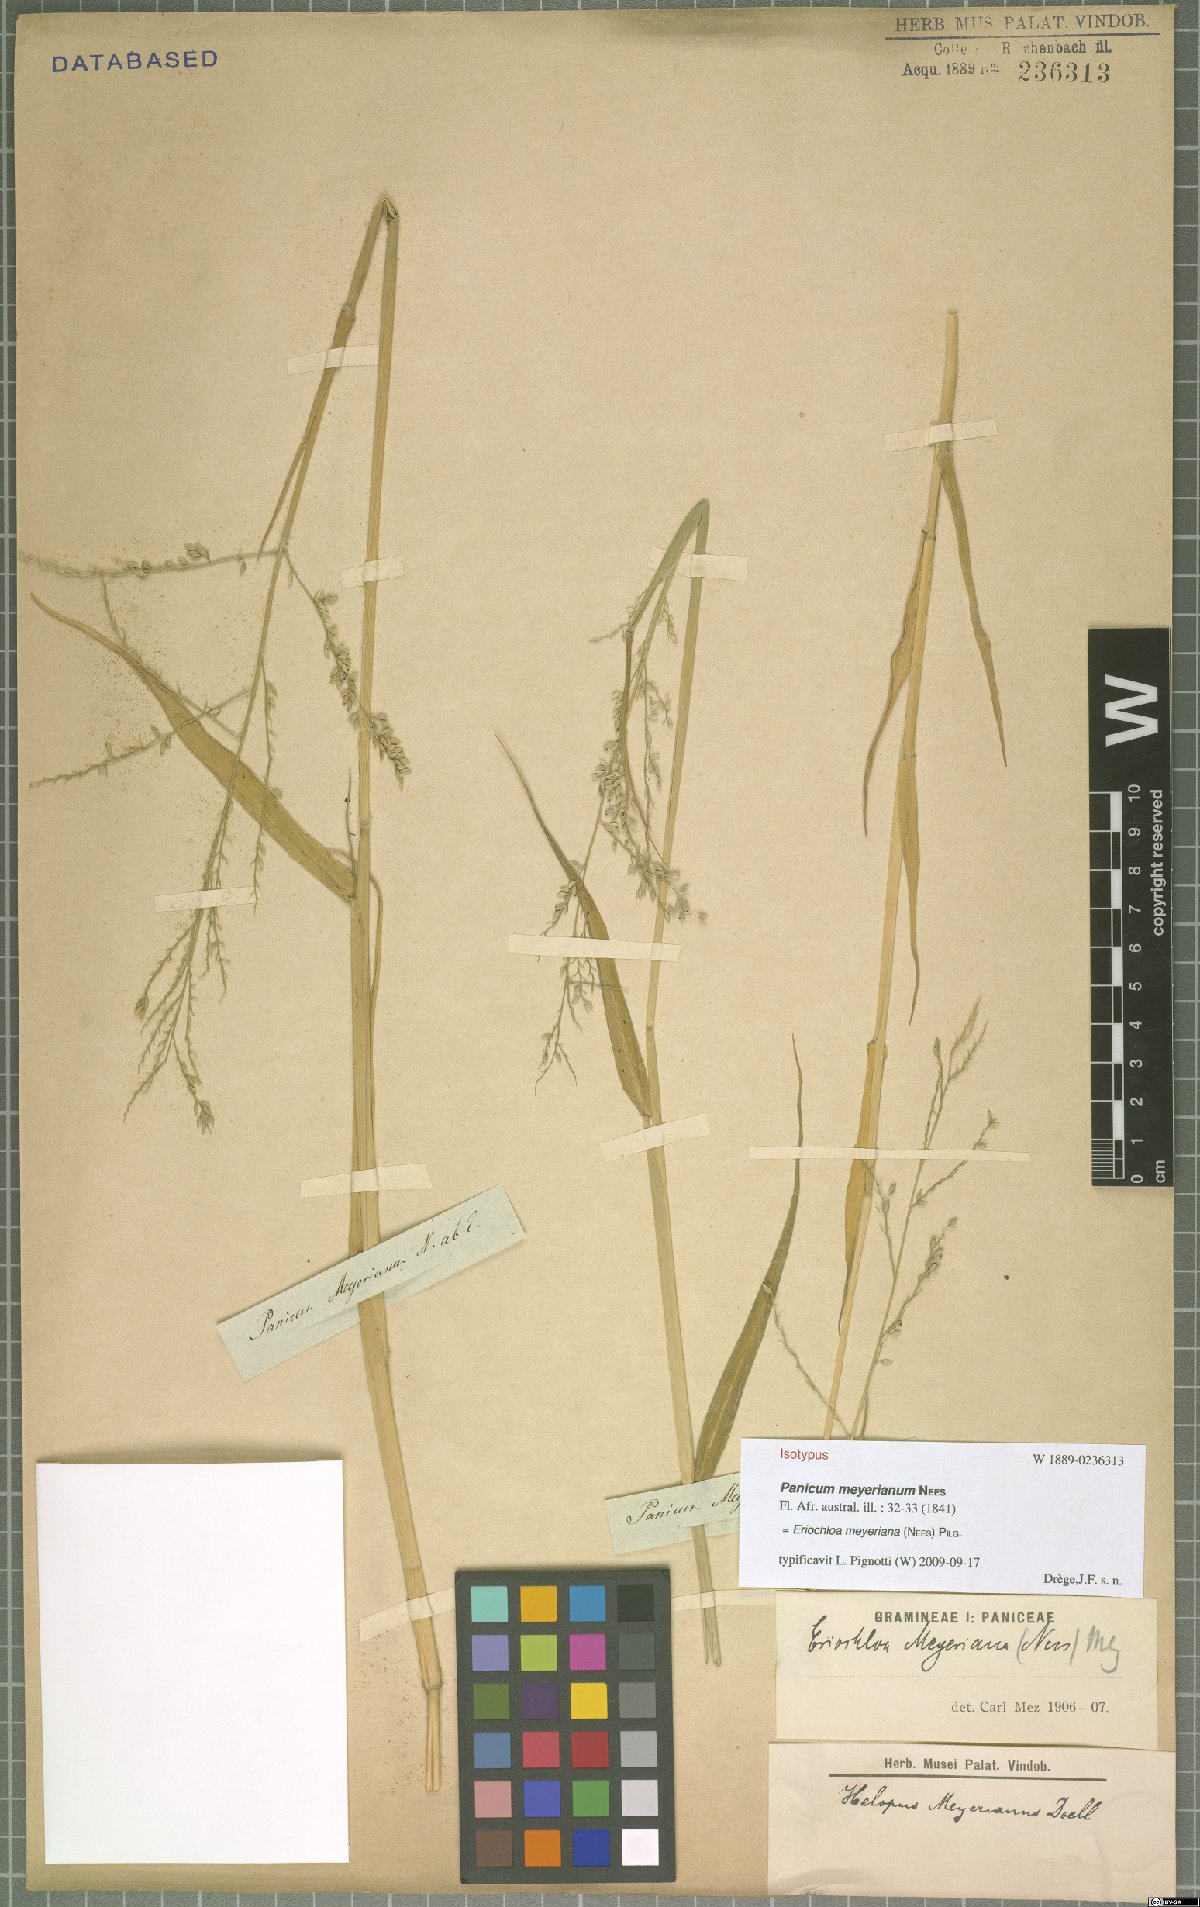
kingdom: Plantae
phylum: Tracheophyta
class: Liliopsida
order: Poales
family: Poaceae
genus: Eriochloa
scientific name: Eriochloa meyeriana
